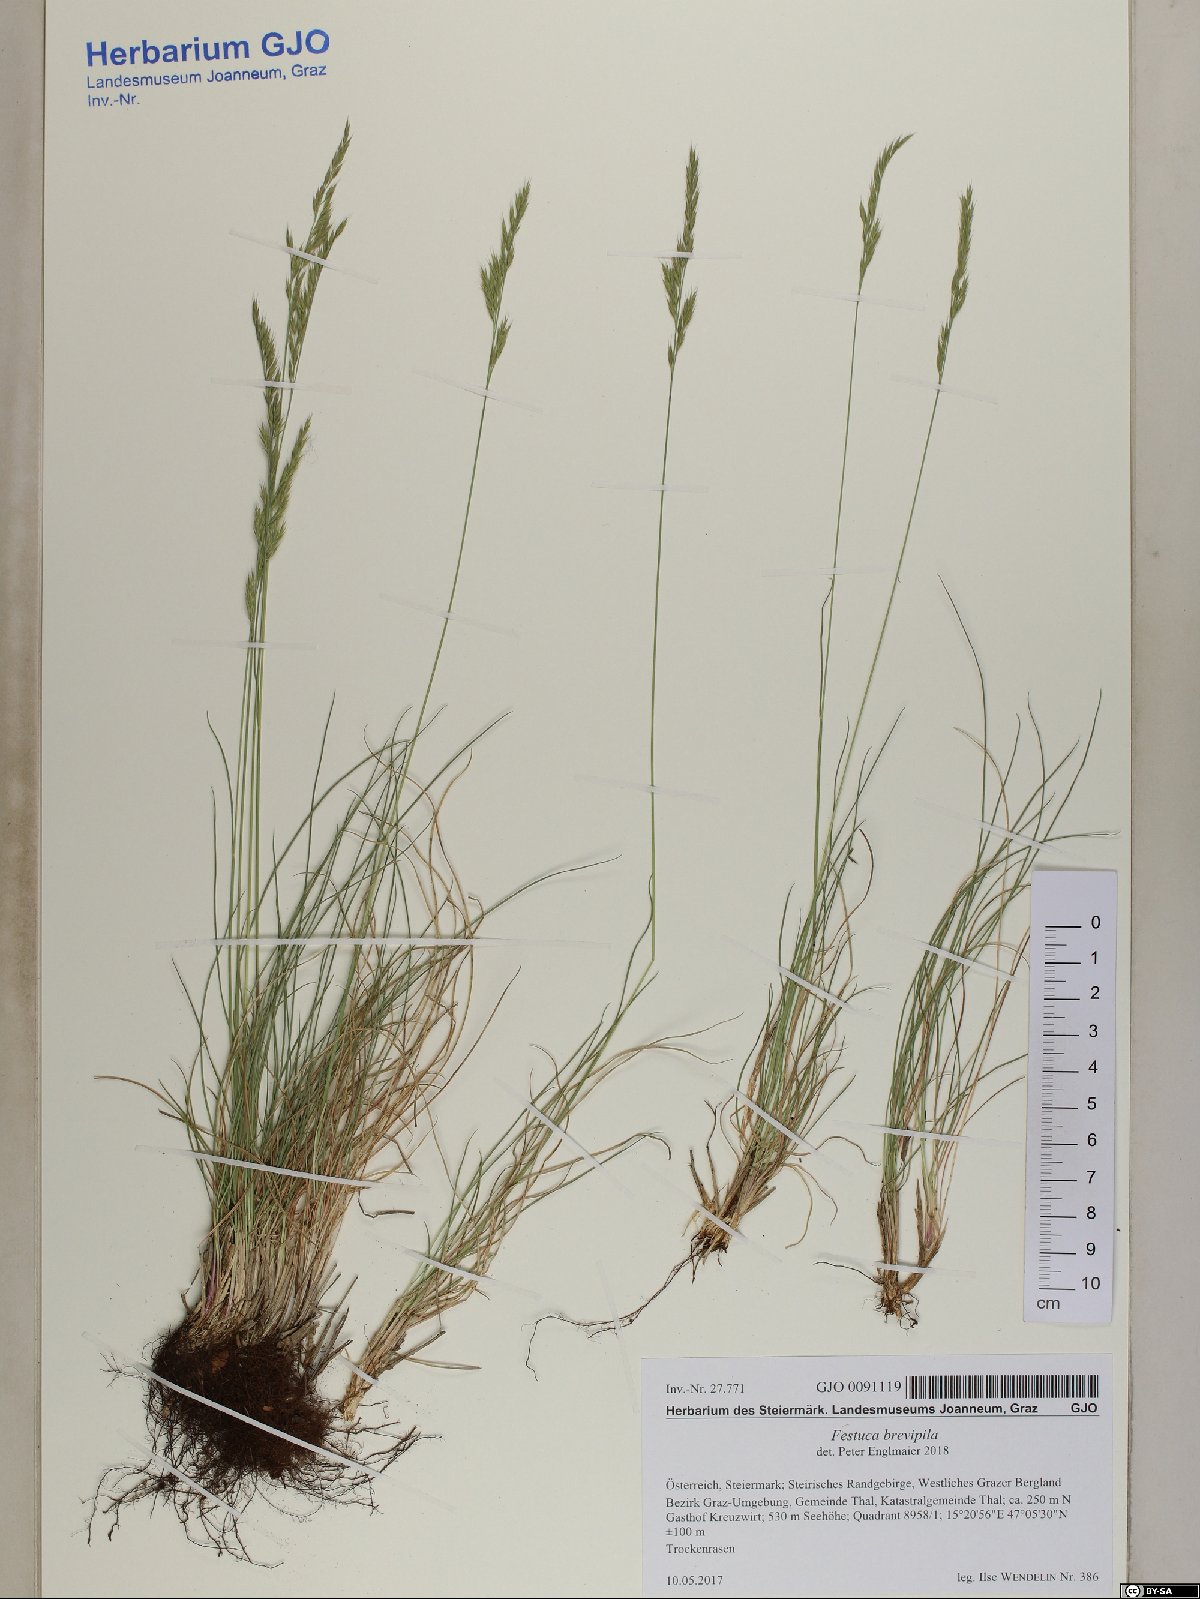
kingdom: Plantae
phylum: Tracheophyta
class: Liliopsida
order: Poales
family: Poaceae
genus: Festuca
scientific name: Festuca trachyphylla
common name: Hard fescue
